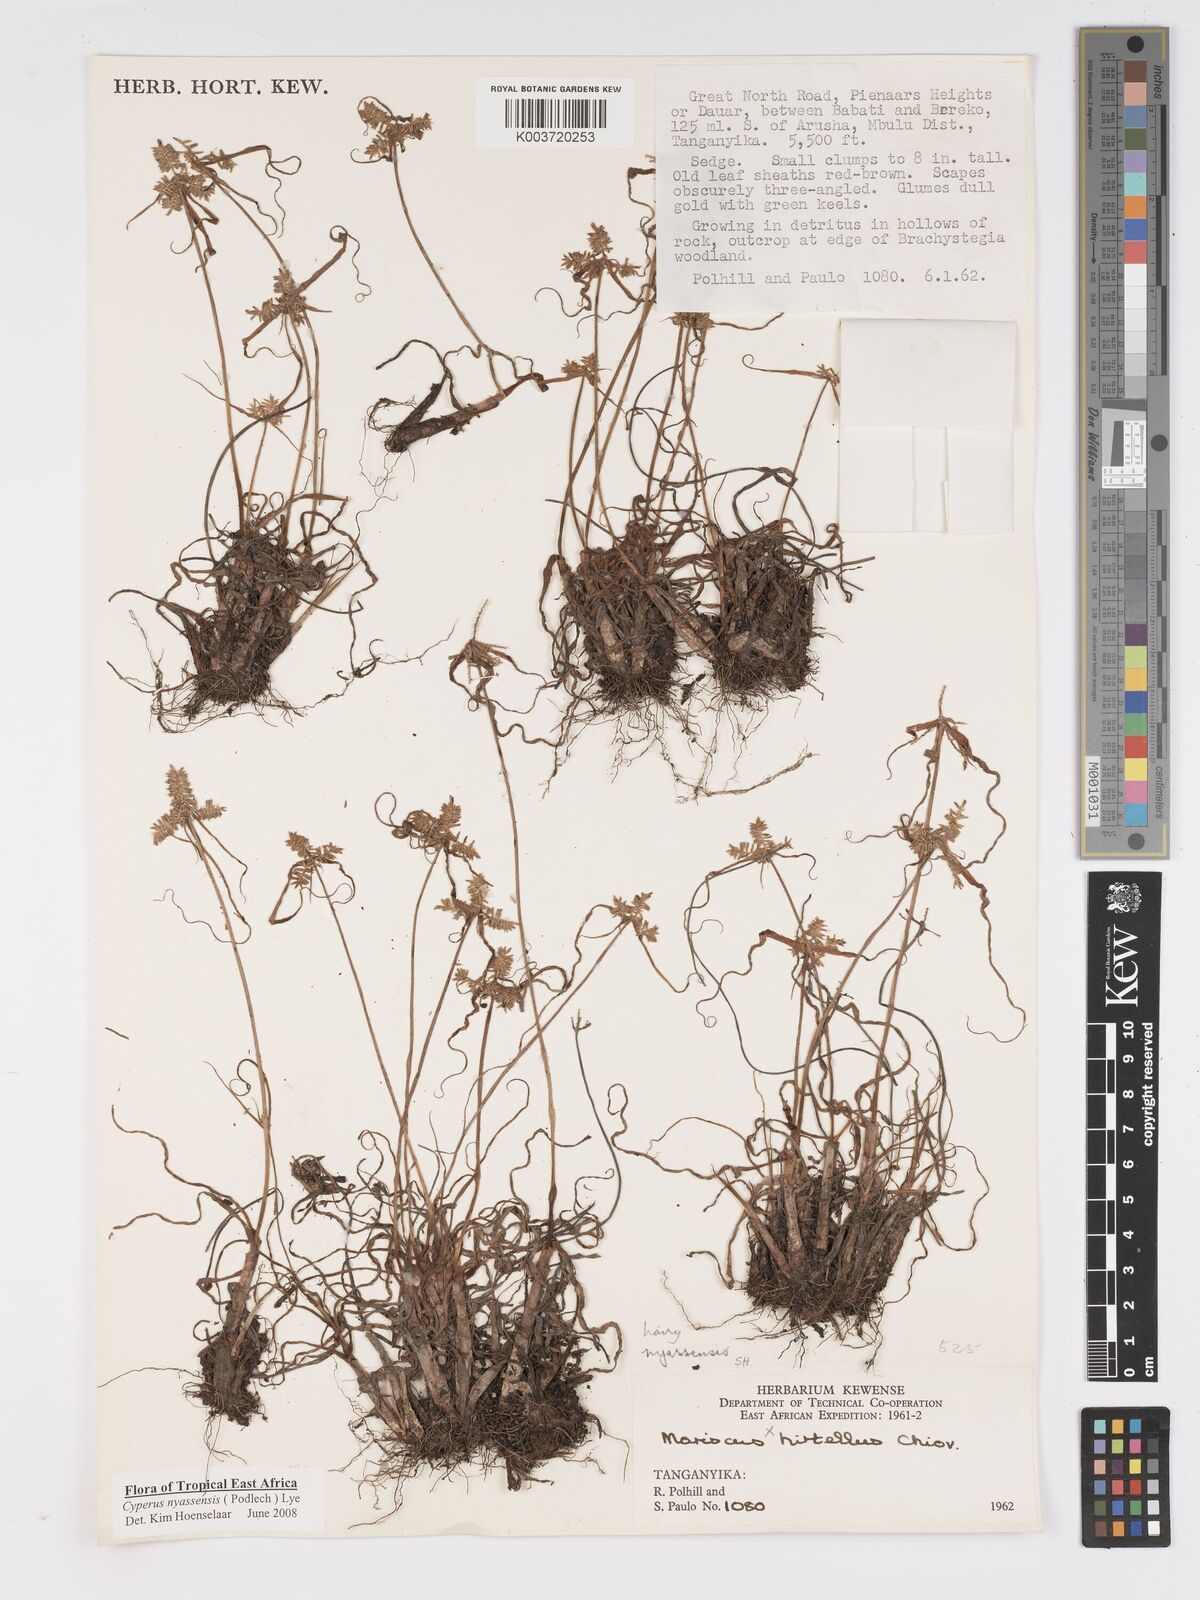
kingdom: Plantae
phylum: Tracheophyta
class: Liliopsida
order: Poales
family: Cyperaceae
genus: Cyperus
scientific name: Cyperus nyasensis
